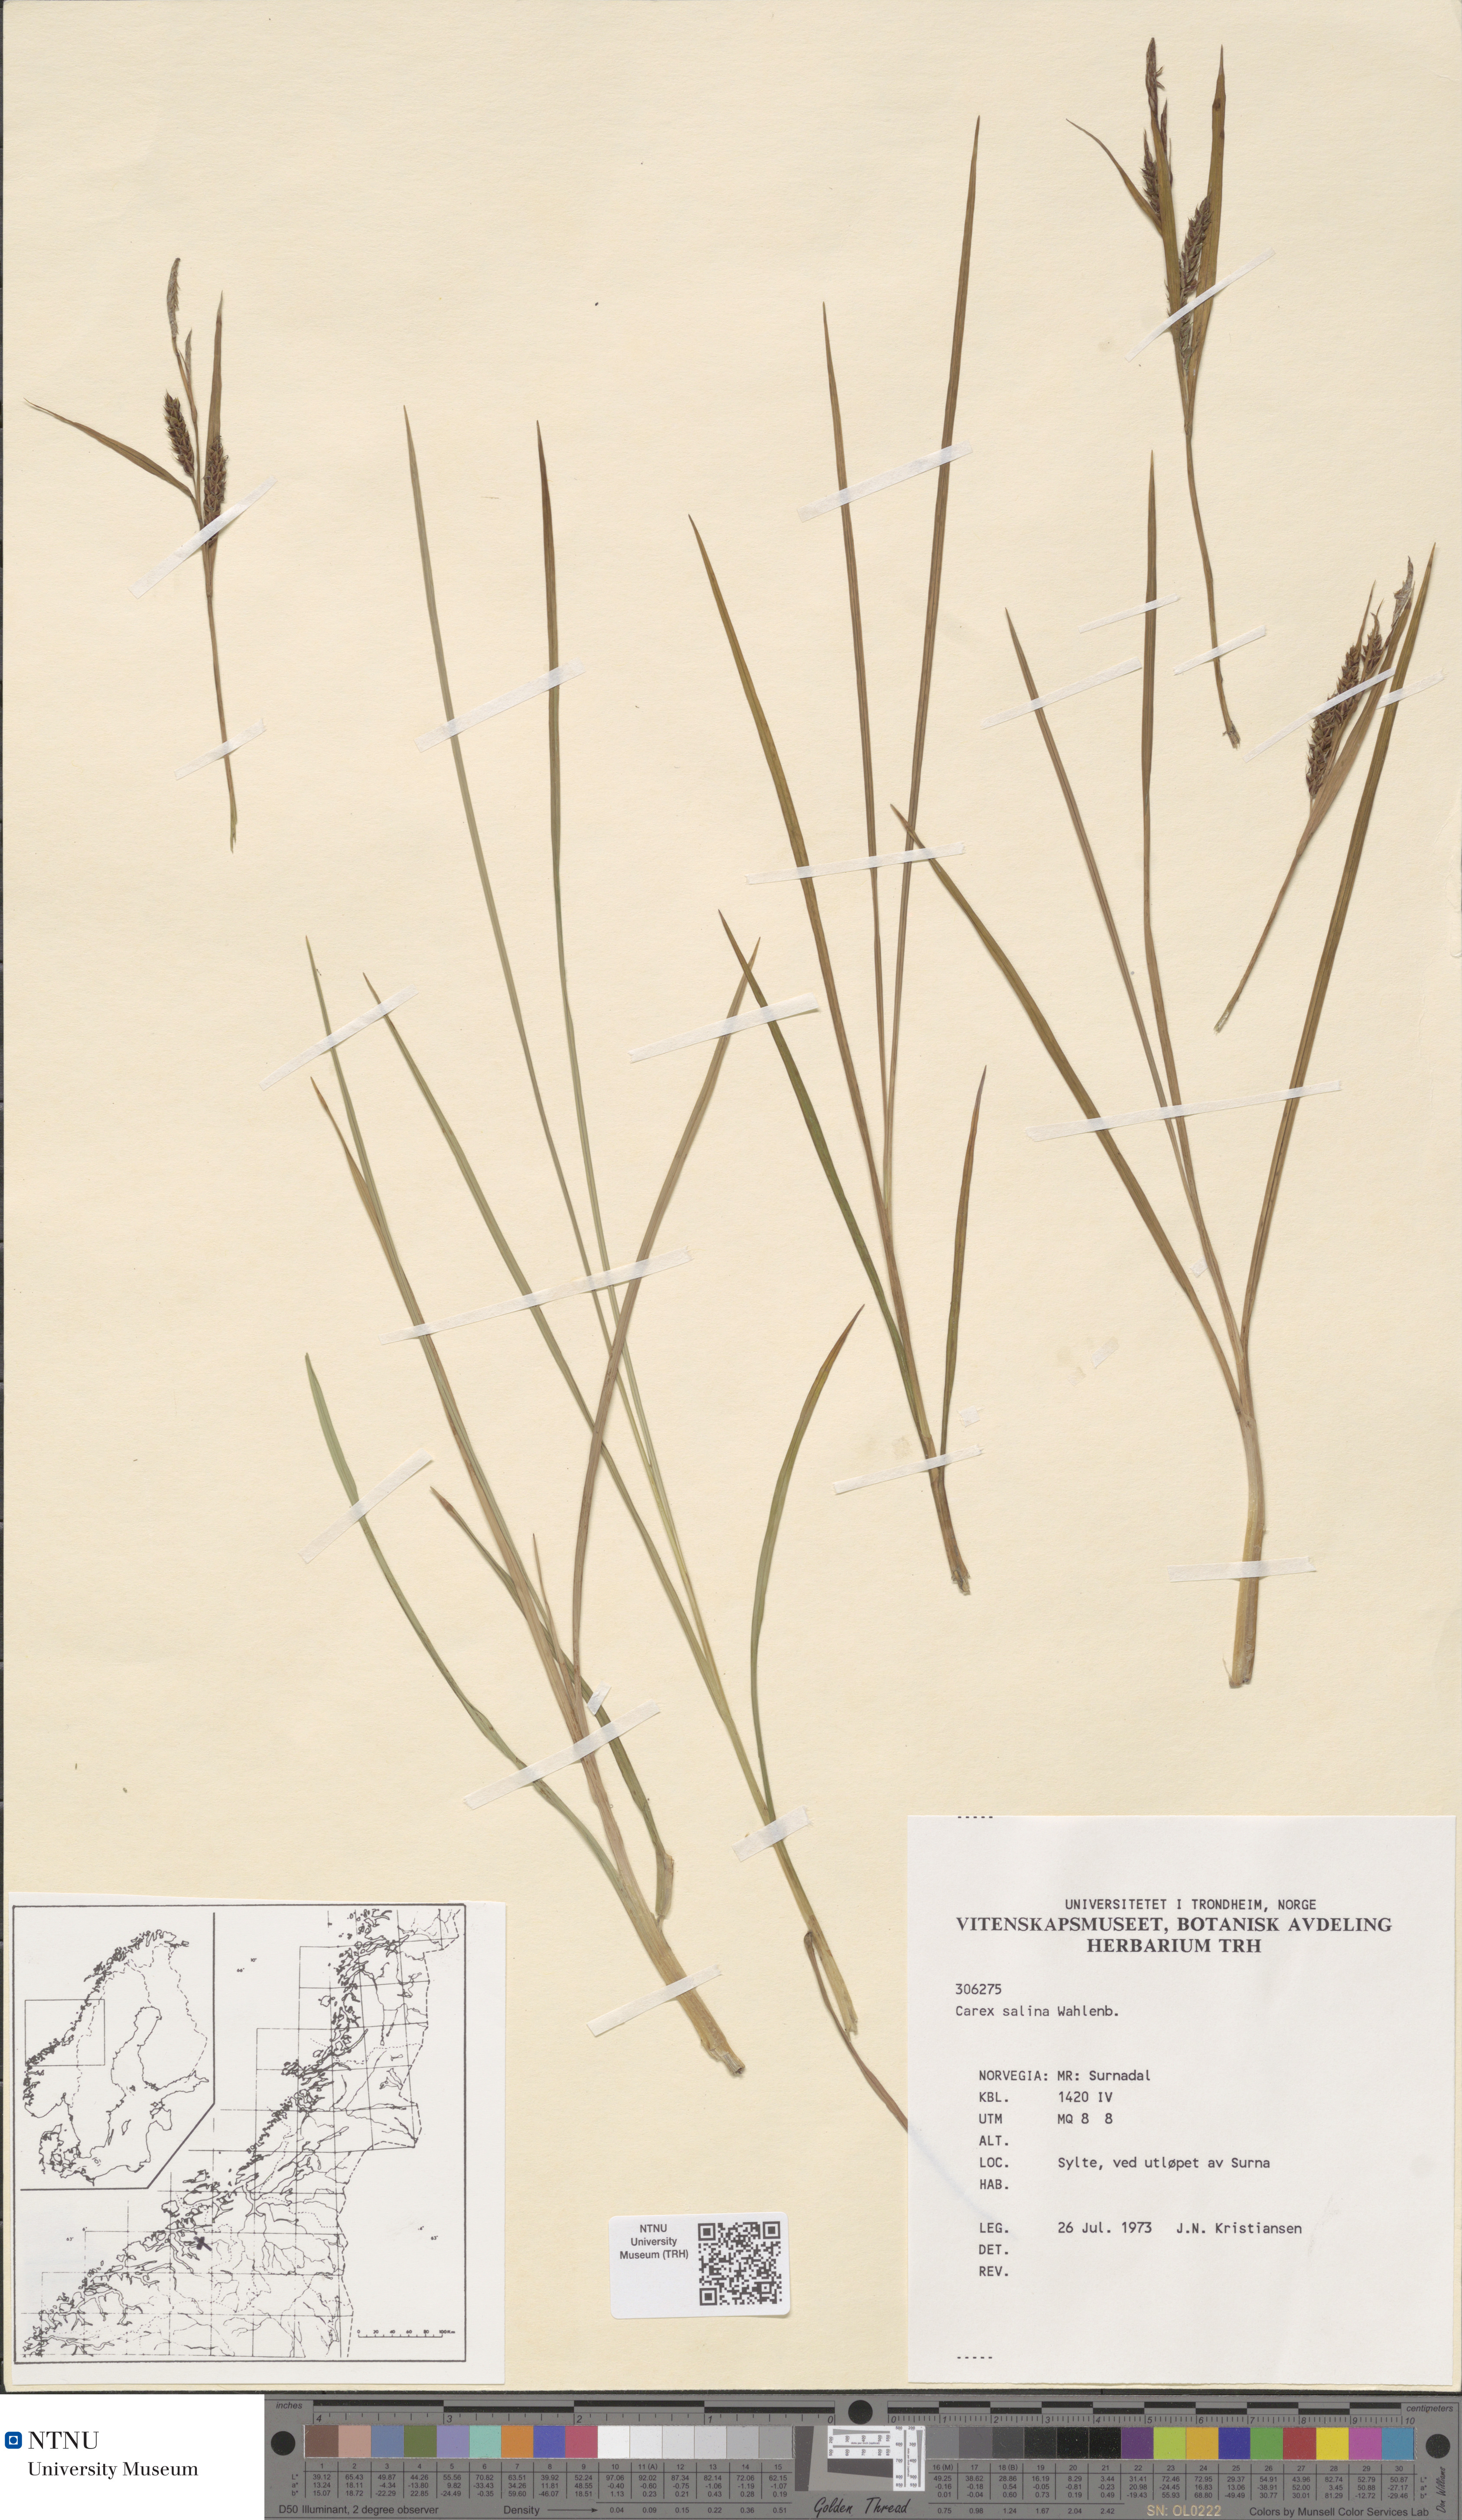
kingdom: Plantae
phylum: Tracheophyta
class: Liliopsida
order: Poales
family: Cyperaceae
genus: Carex
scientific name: Carex salina
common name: Saltmarsh sedge
